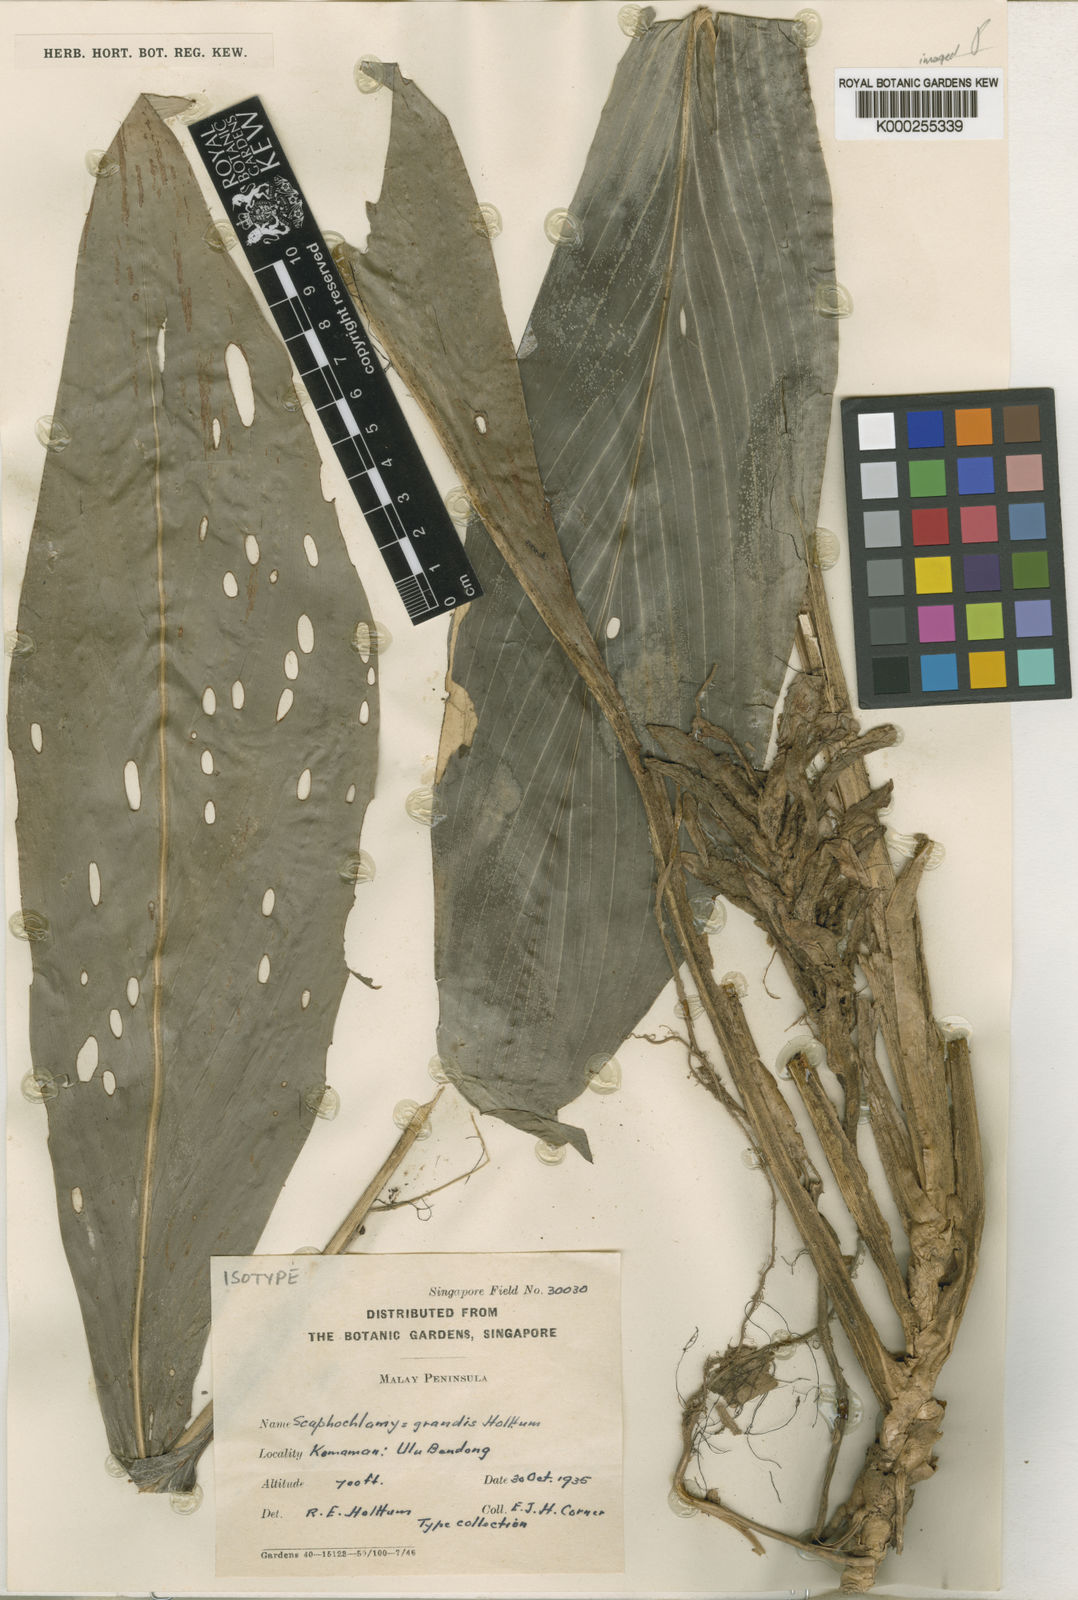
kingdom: Plantae
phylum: Tracheophyta
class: Liliopsida
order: Zingiberales
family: Zingiberaceae
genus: Scaphochlamys
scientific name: Scaphochlamys klossii
